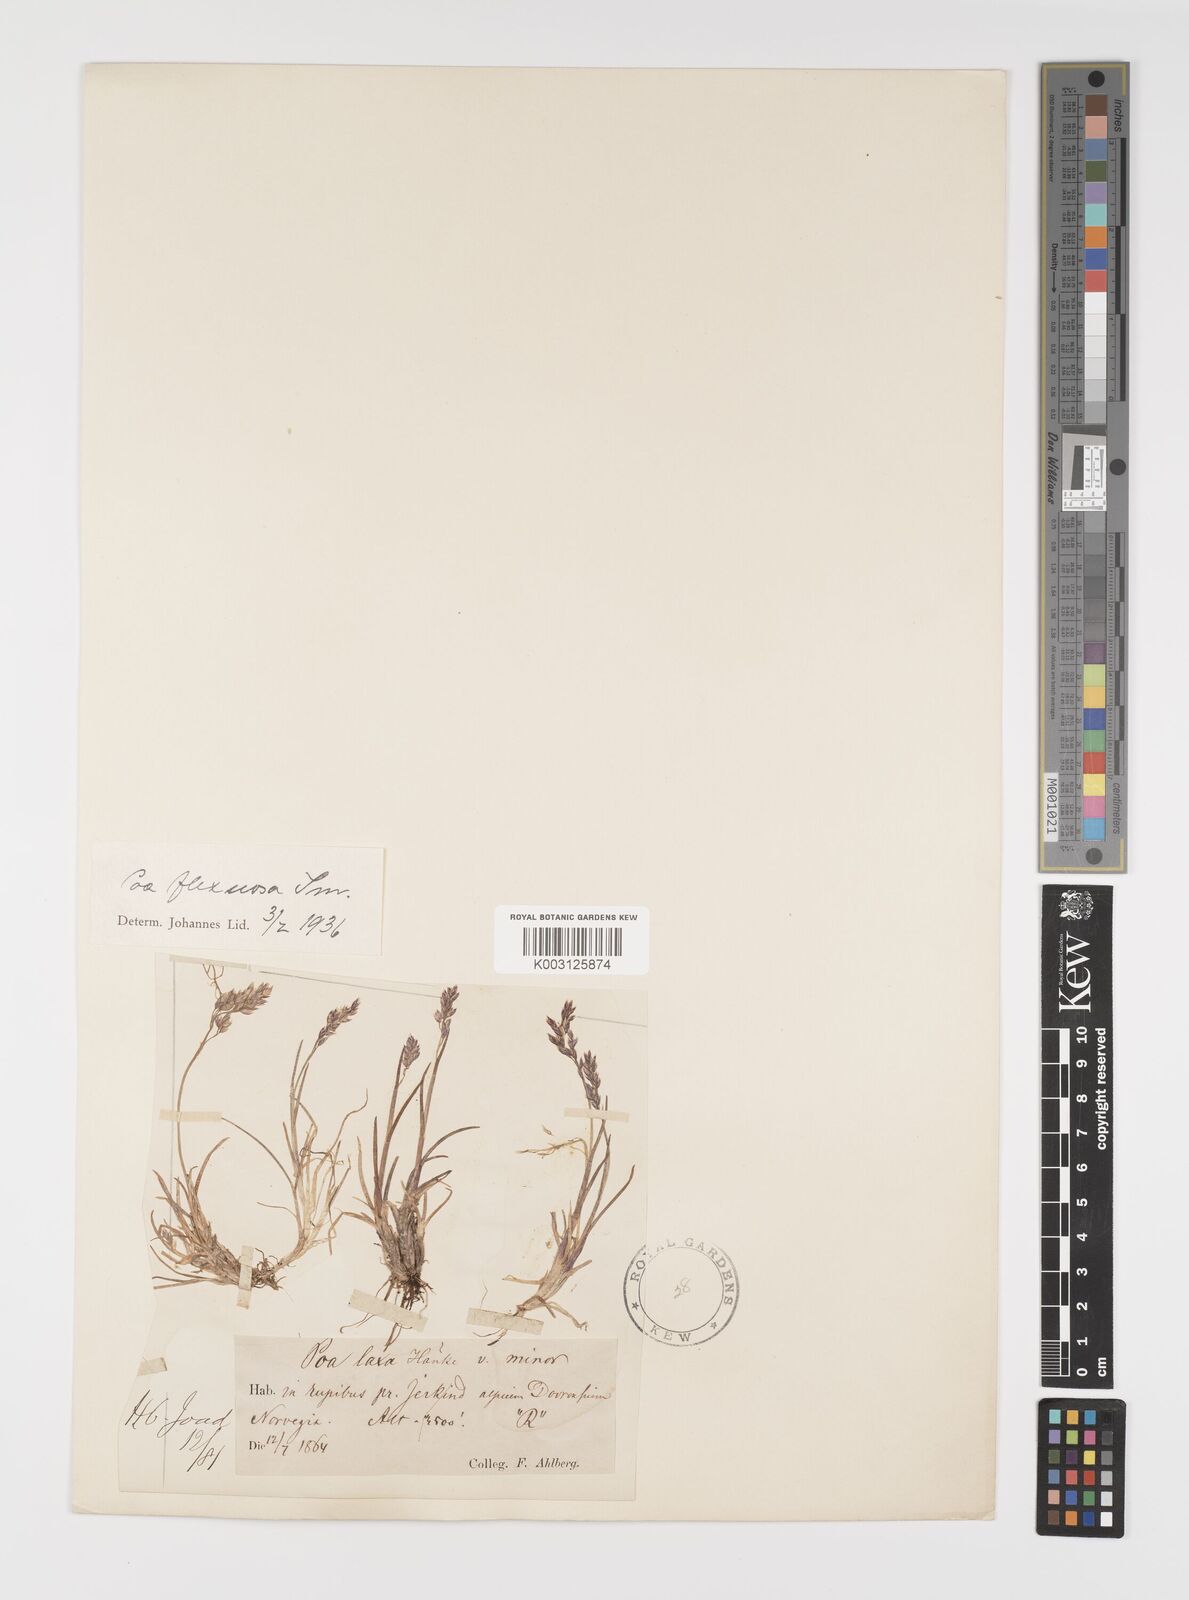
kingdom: Plantae
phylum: Tracheophyta
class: Liliopsida
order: Poales
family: Poaceae
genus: Eragrostis
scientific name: Eragrostis cilianensis
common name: Stinkgrass
